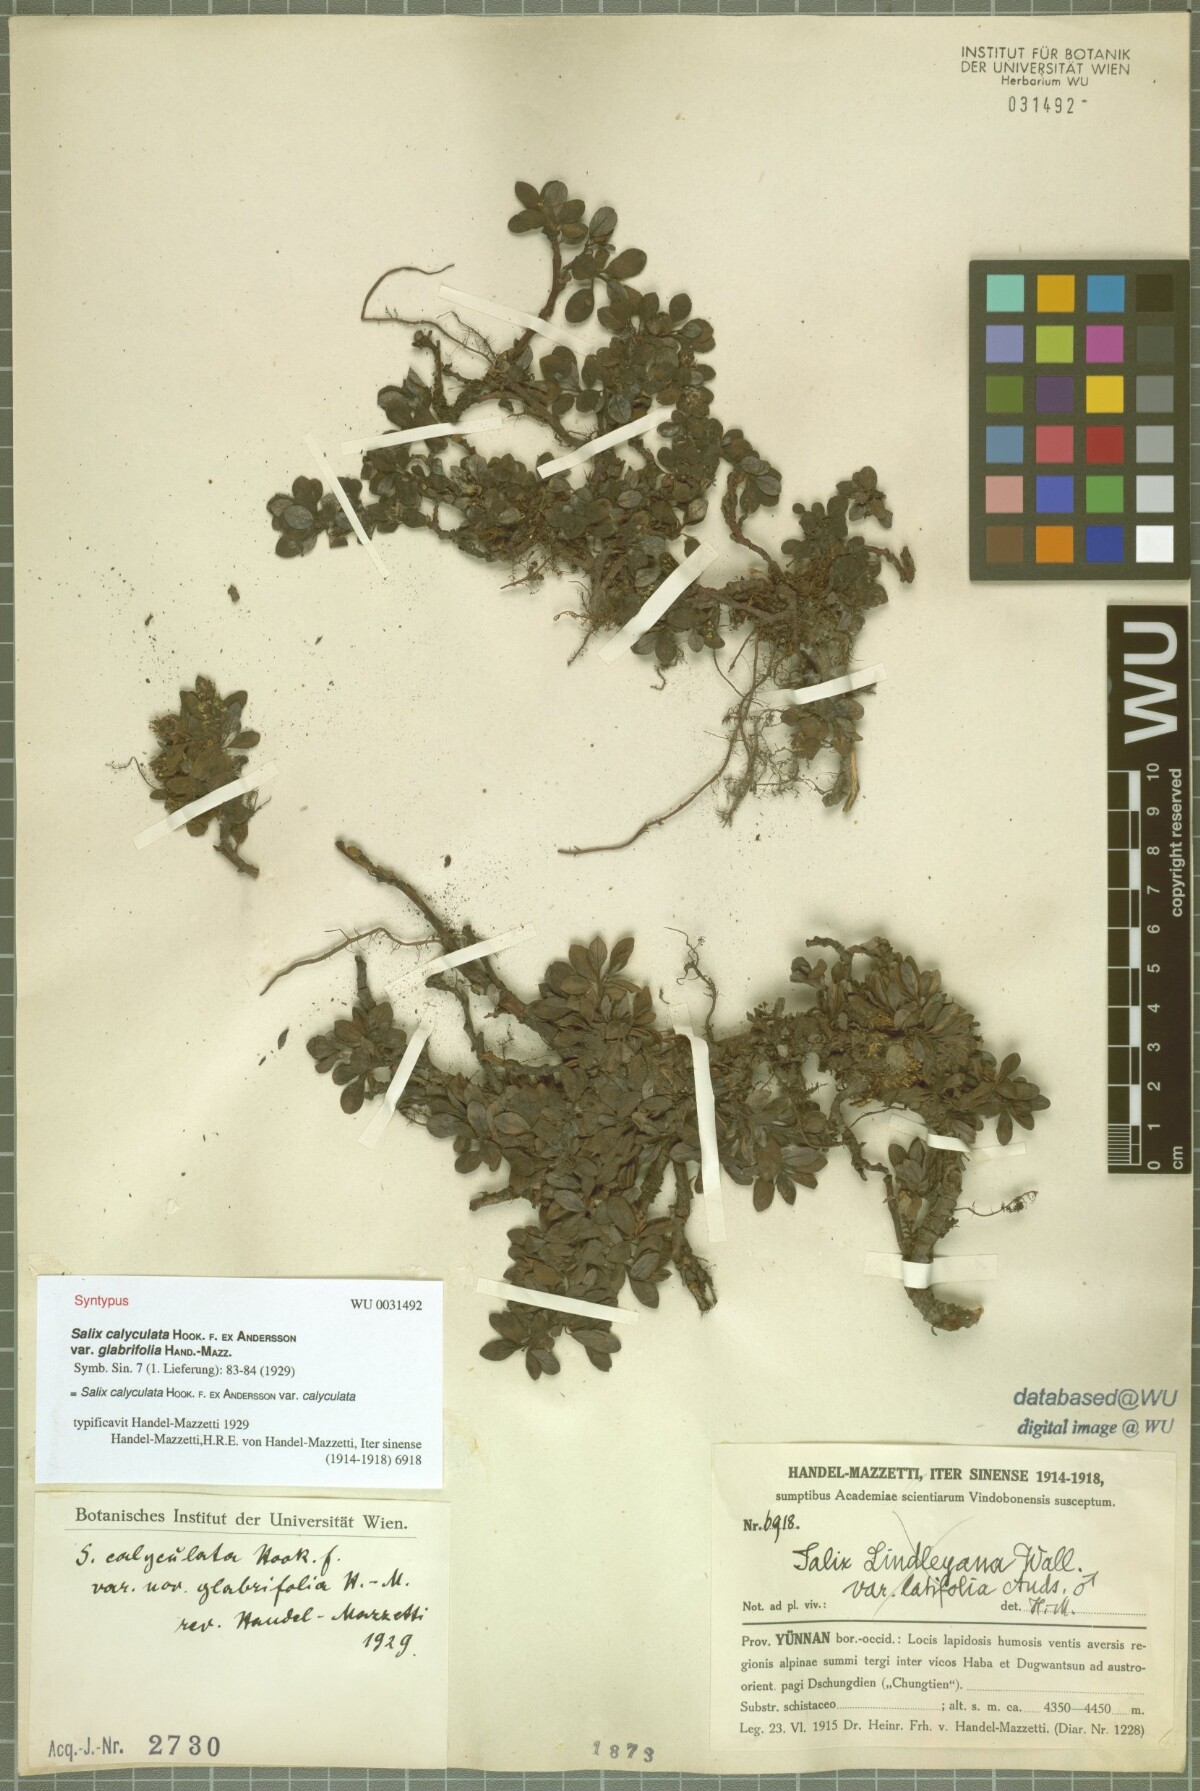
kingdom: Plantae
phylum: Tracheophyta
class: Magnoliopsida
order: Malpighiales
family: Salicaceae
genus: Salix
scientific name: Salix lindleyana
